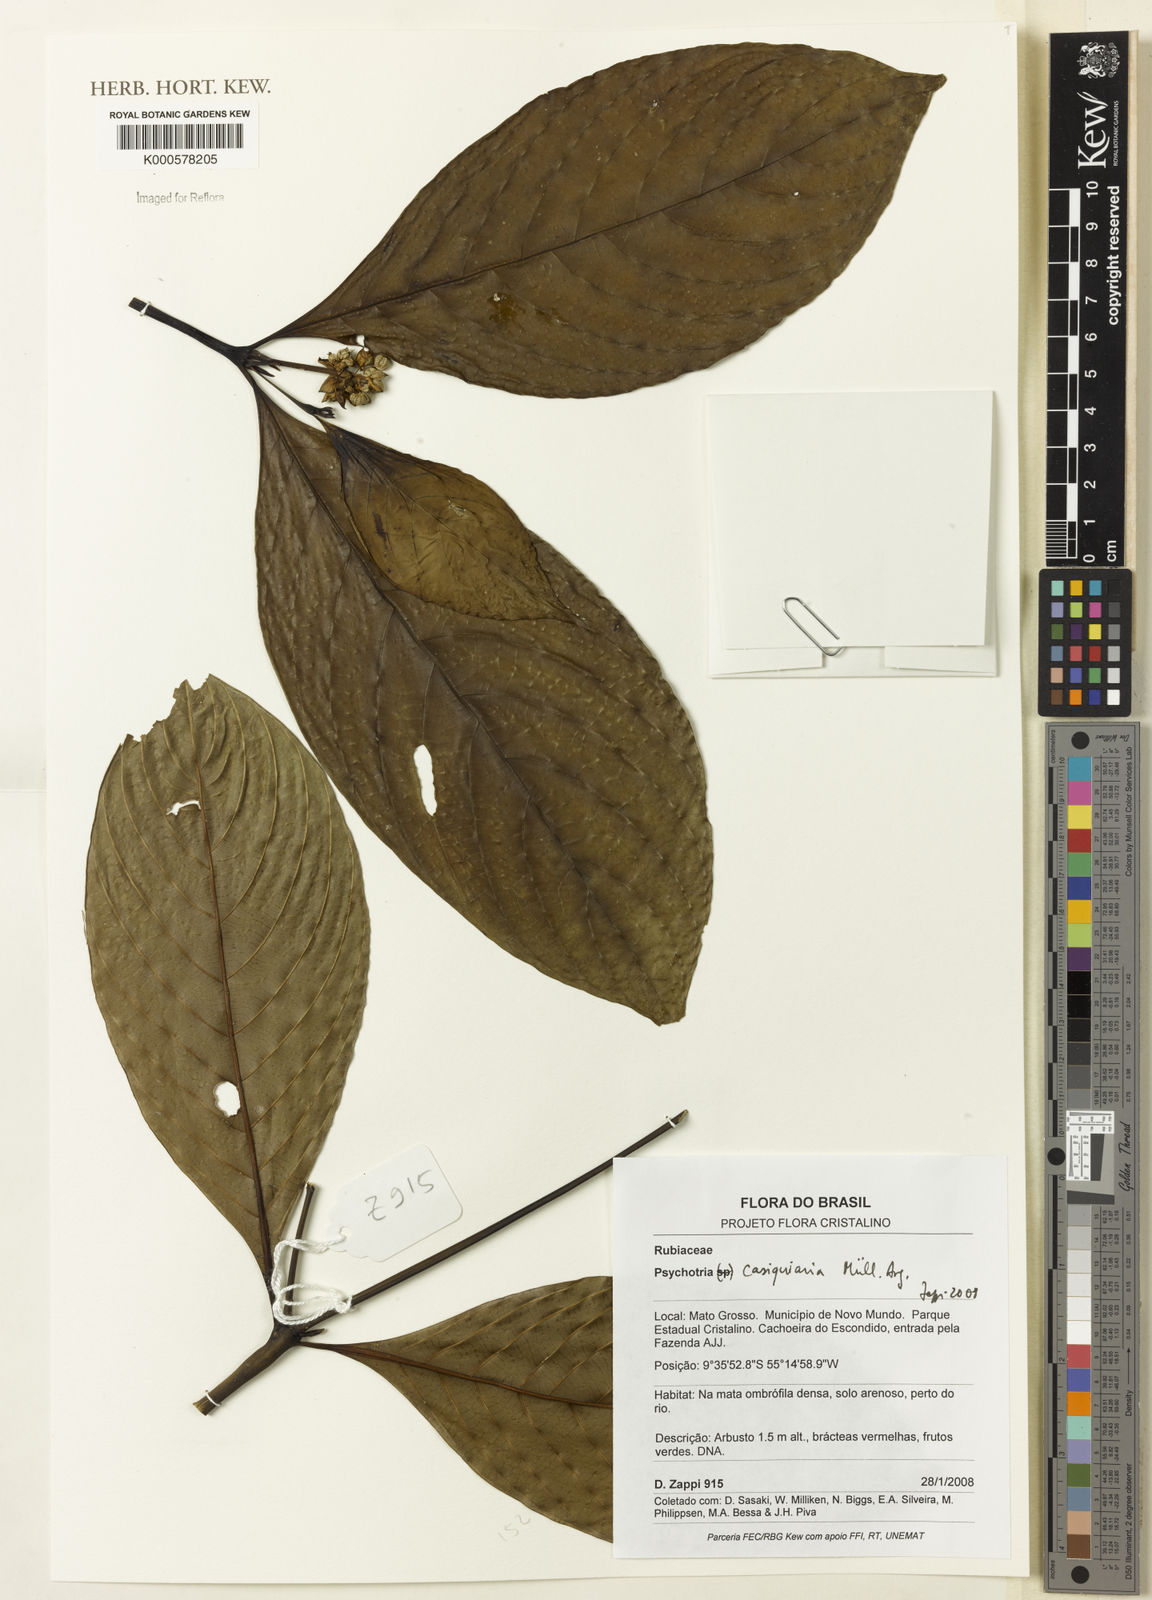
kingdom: Plantae
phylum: Tracheophyta
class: Magnoliopsida
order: Gentianales
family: Rubiaceae
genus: Psychotria
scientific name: Psychotria
